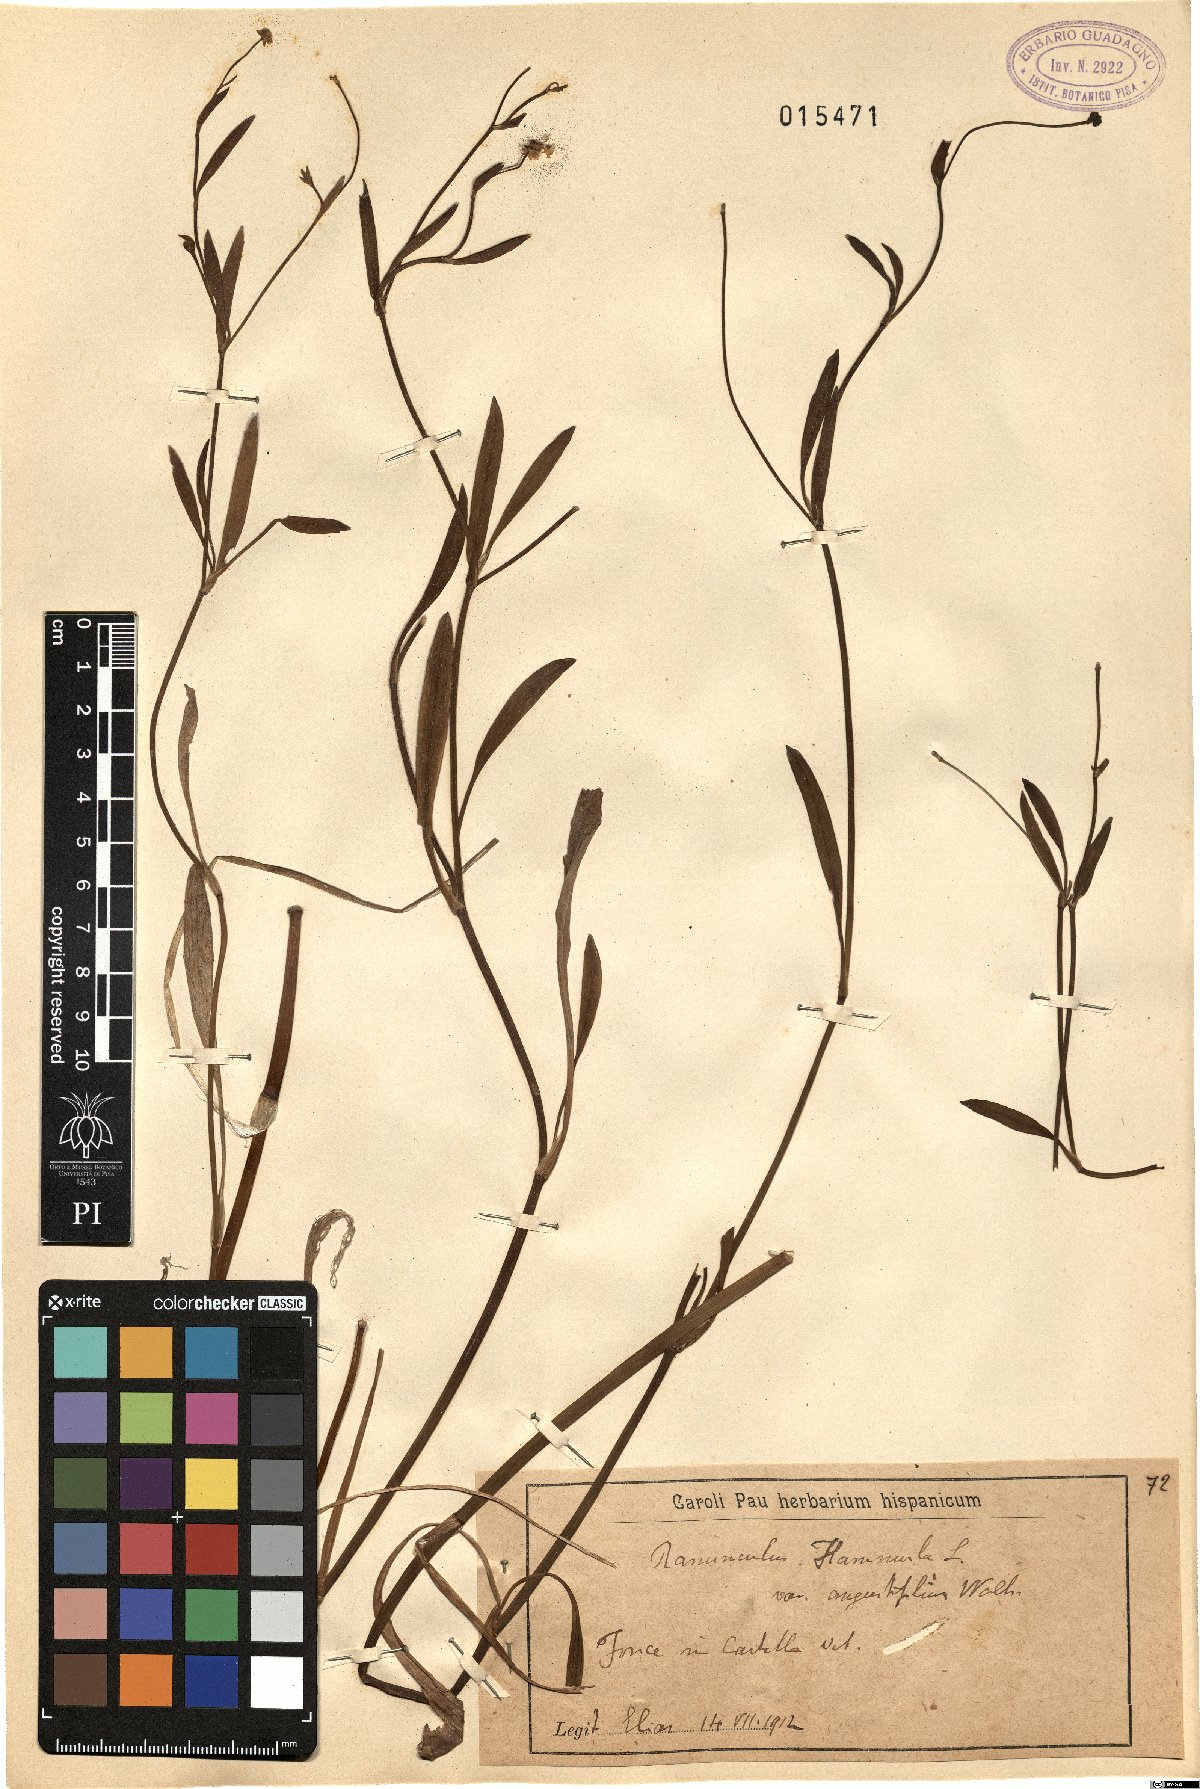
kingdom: Plantae
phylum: Tracheophyta
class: Magnoliopsida
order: Ranunculales
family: Ranunculaceae
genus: Ranunculus
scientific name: Ranunculus flammula
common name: Lesser spearwort
